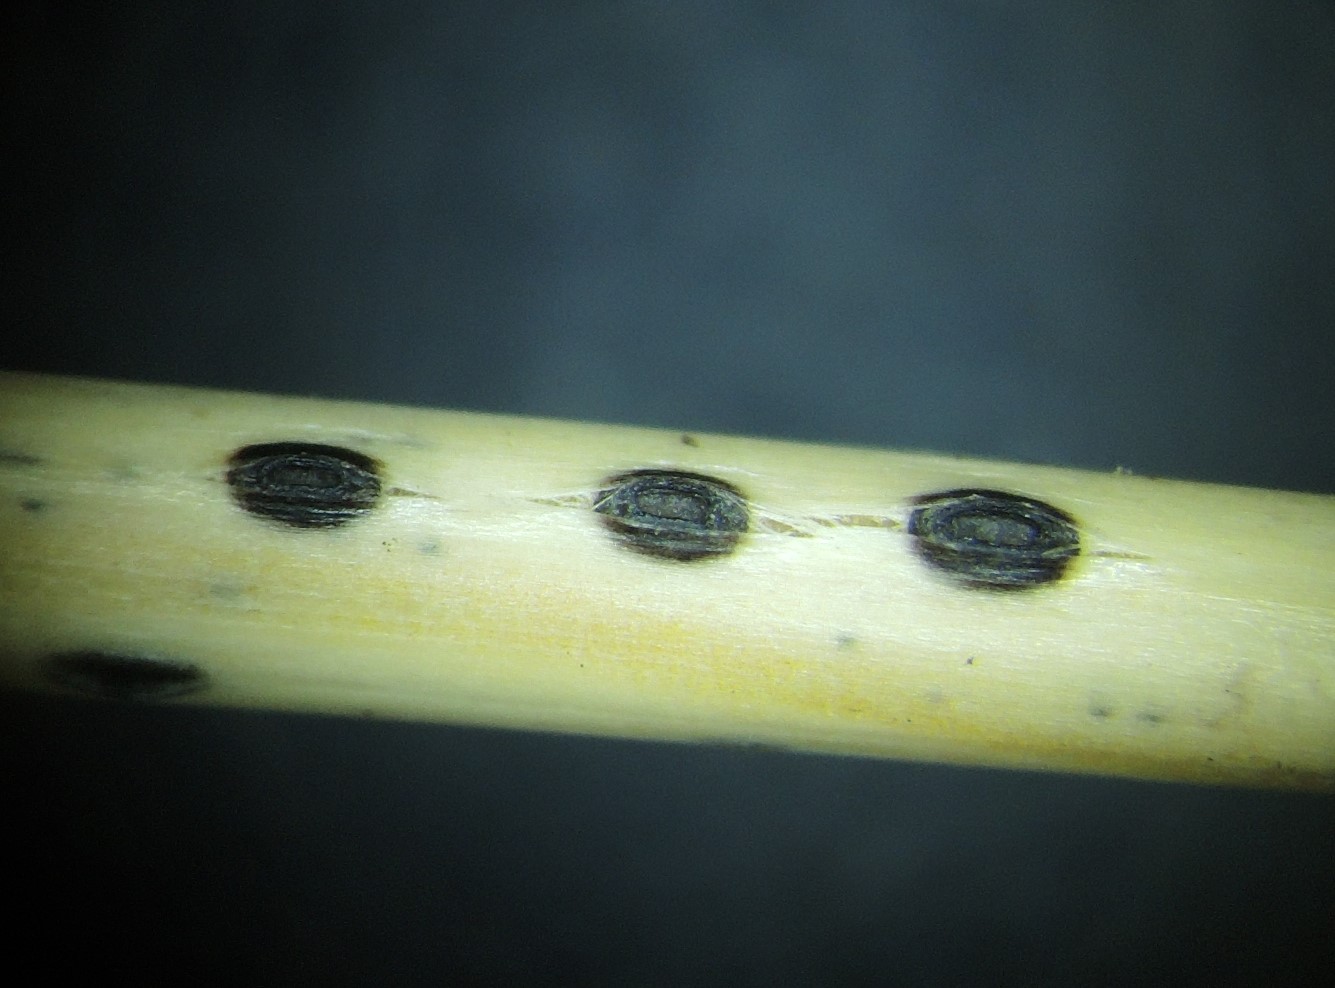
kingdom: Fungi
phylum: Ascomycota
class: Leotiomycetes
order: Rhytismatales
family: Rhytismataceae
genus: Lophodermium
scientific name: Lophodermium culmigenum
